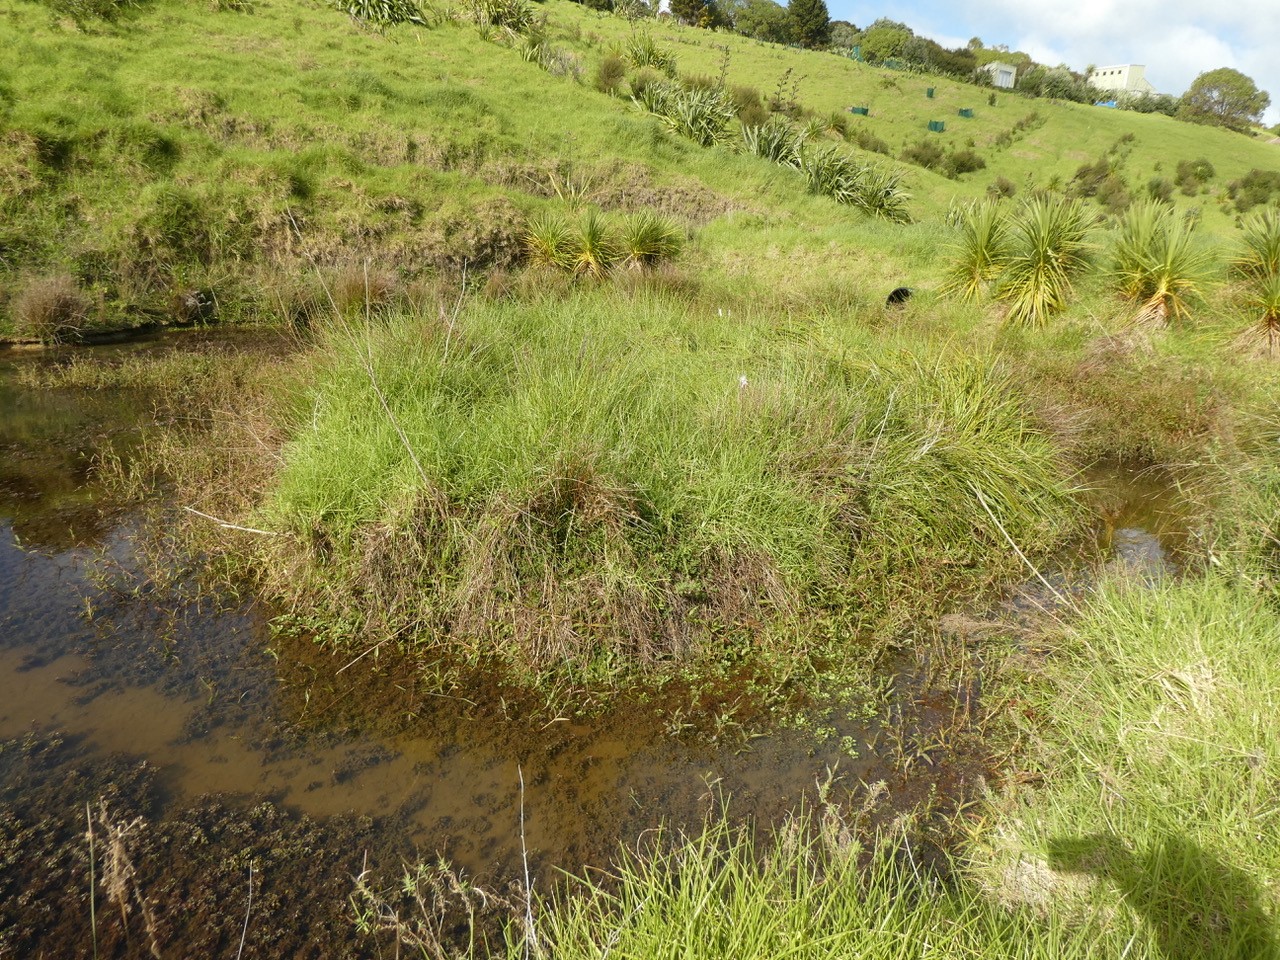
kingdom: Plantae
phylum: Tracheophyta
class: Liliopsida
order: Poales
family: Cyperaceae
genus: Carex
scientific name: Carex geminata
